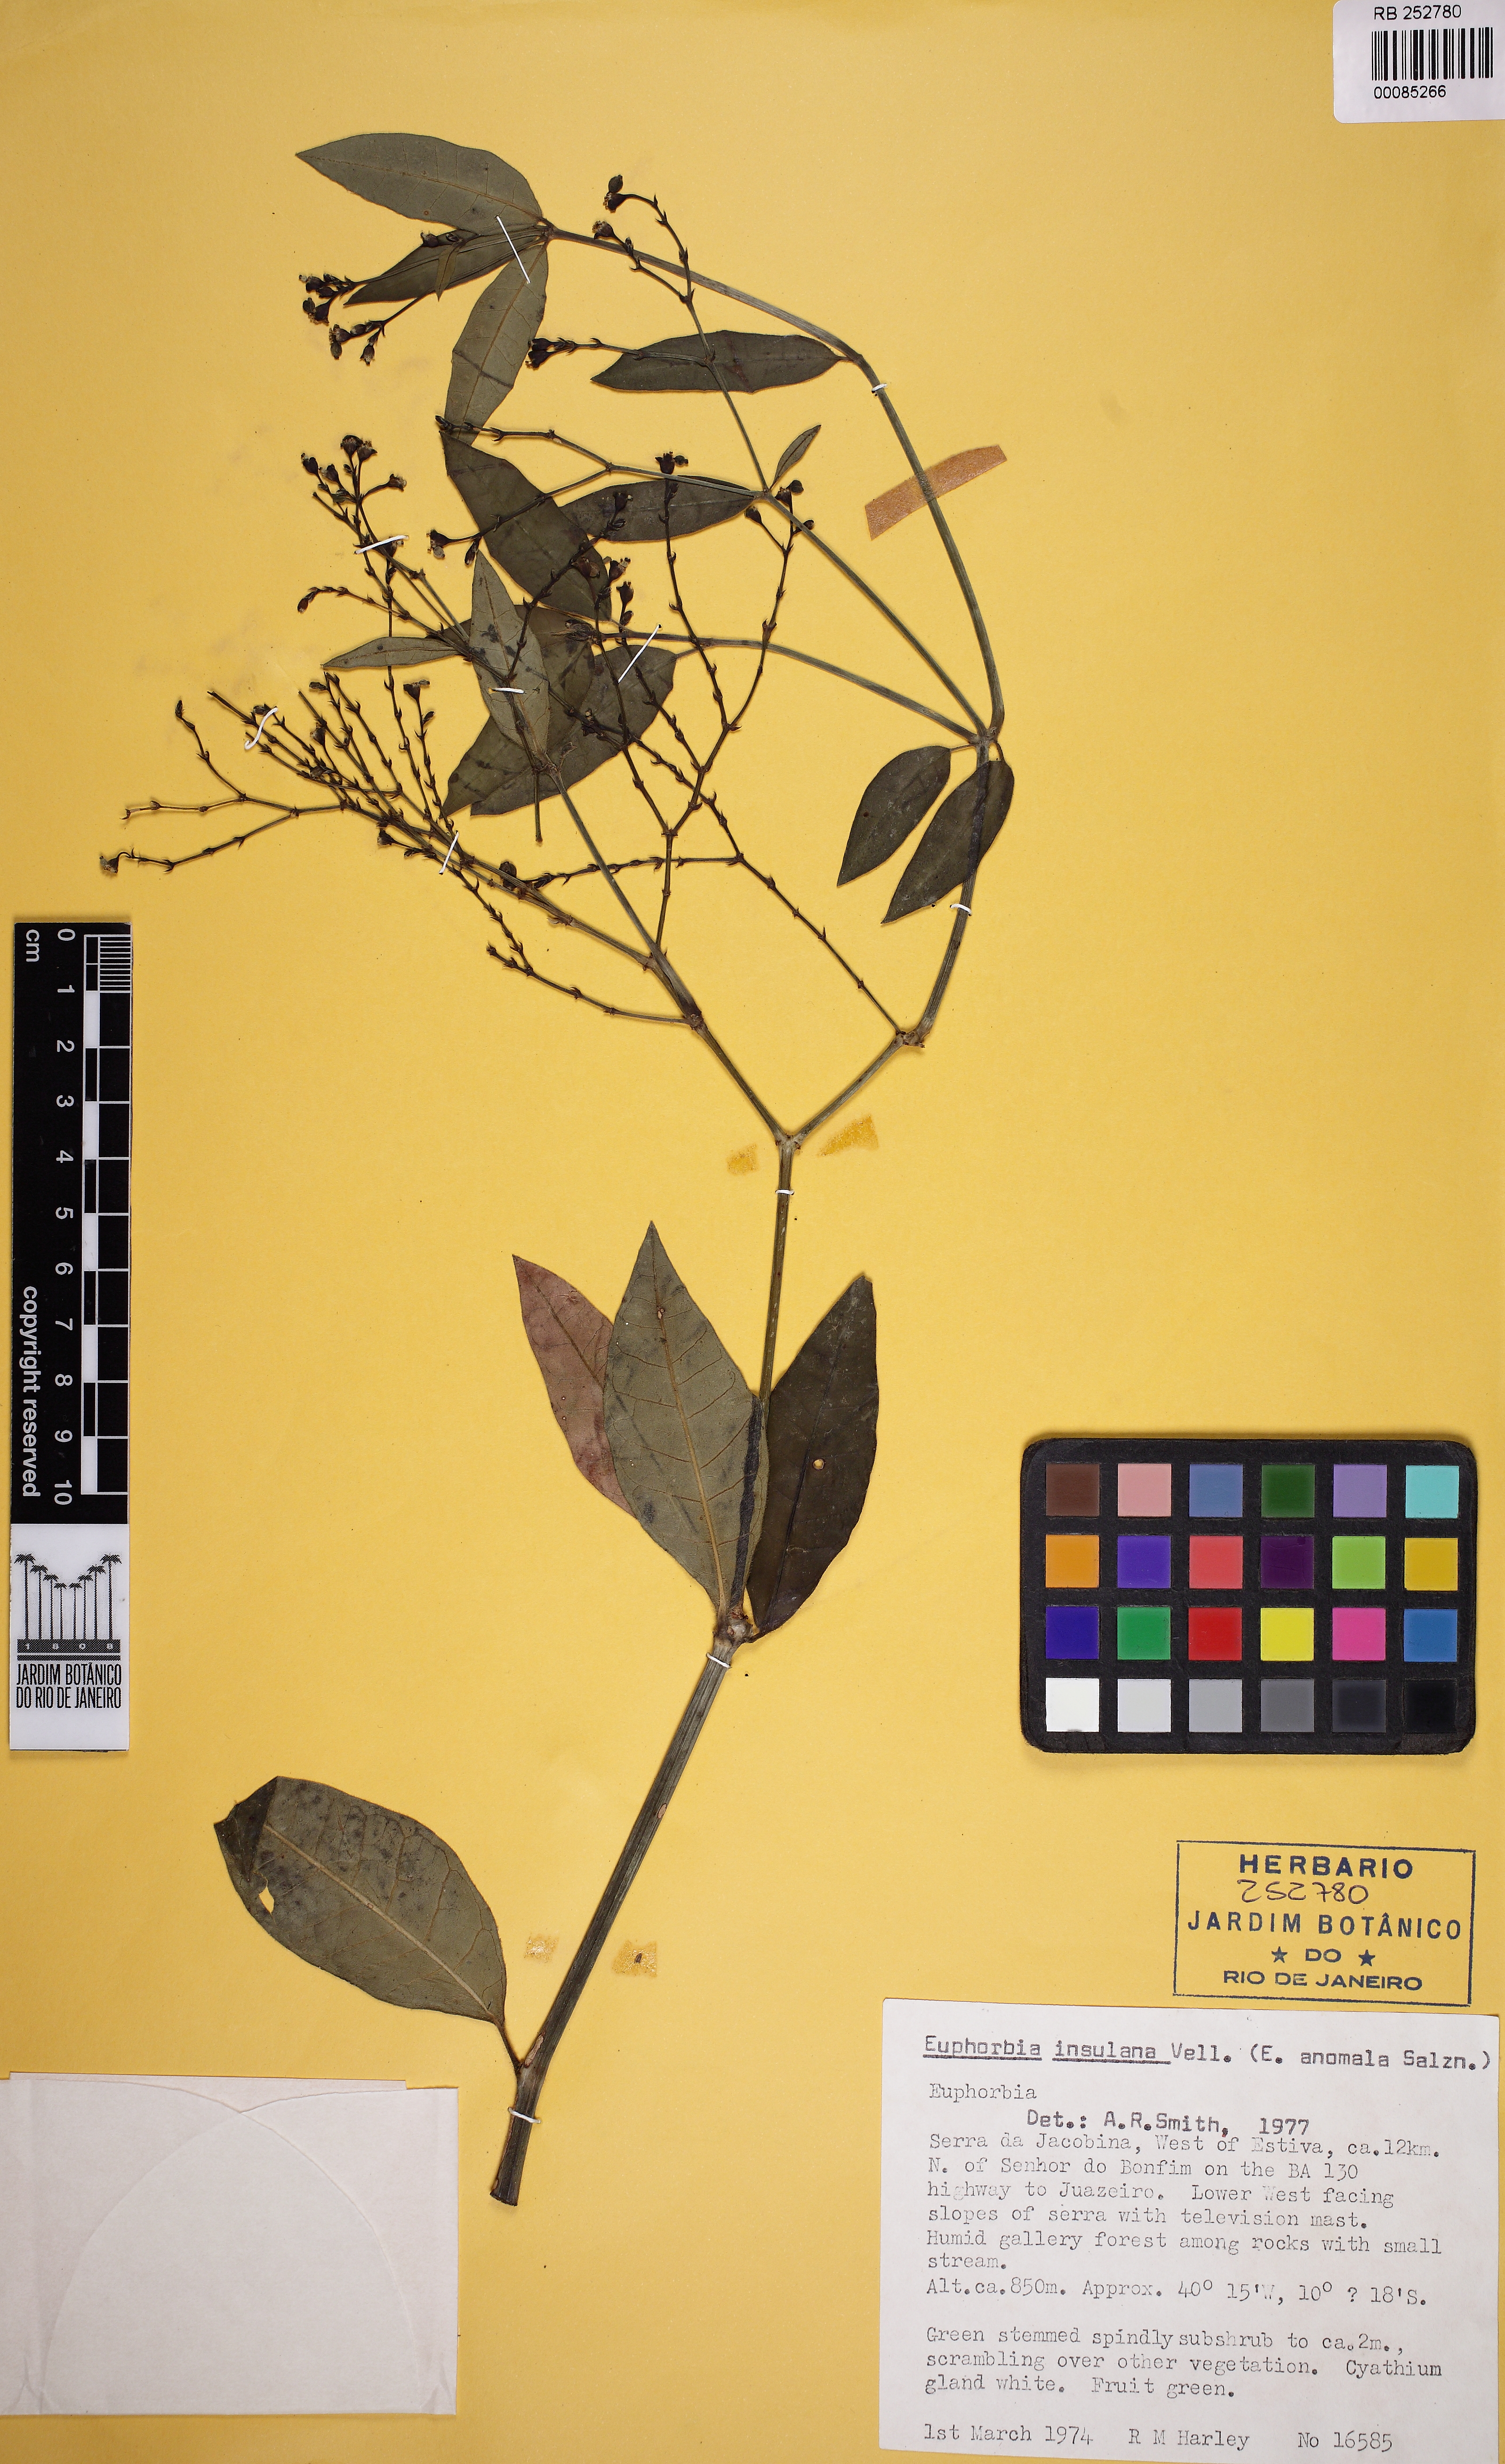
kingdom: Plantae
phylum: Tracheophyta
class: Magnoliopsida
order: Malpighiales
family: Euphorbiaceae
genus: Euphorbia
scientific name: Euphorbia insulana
